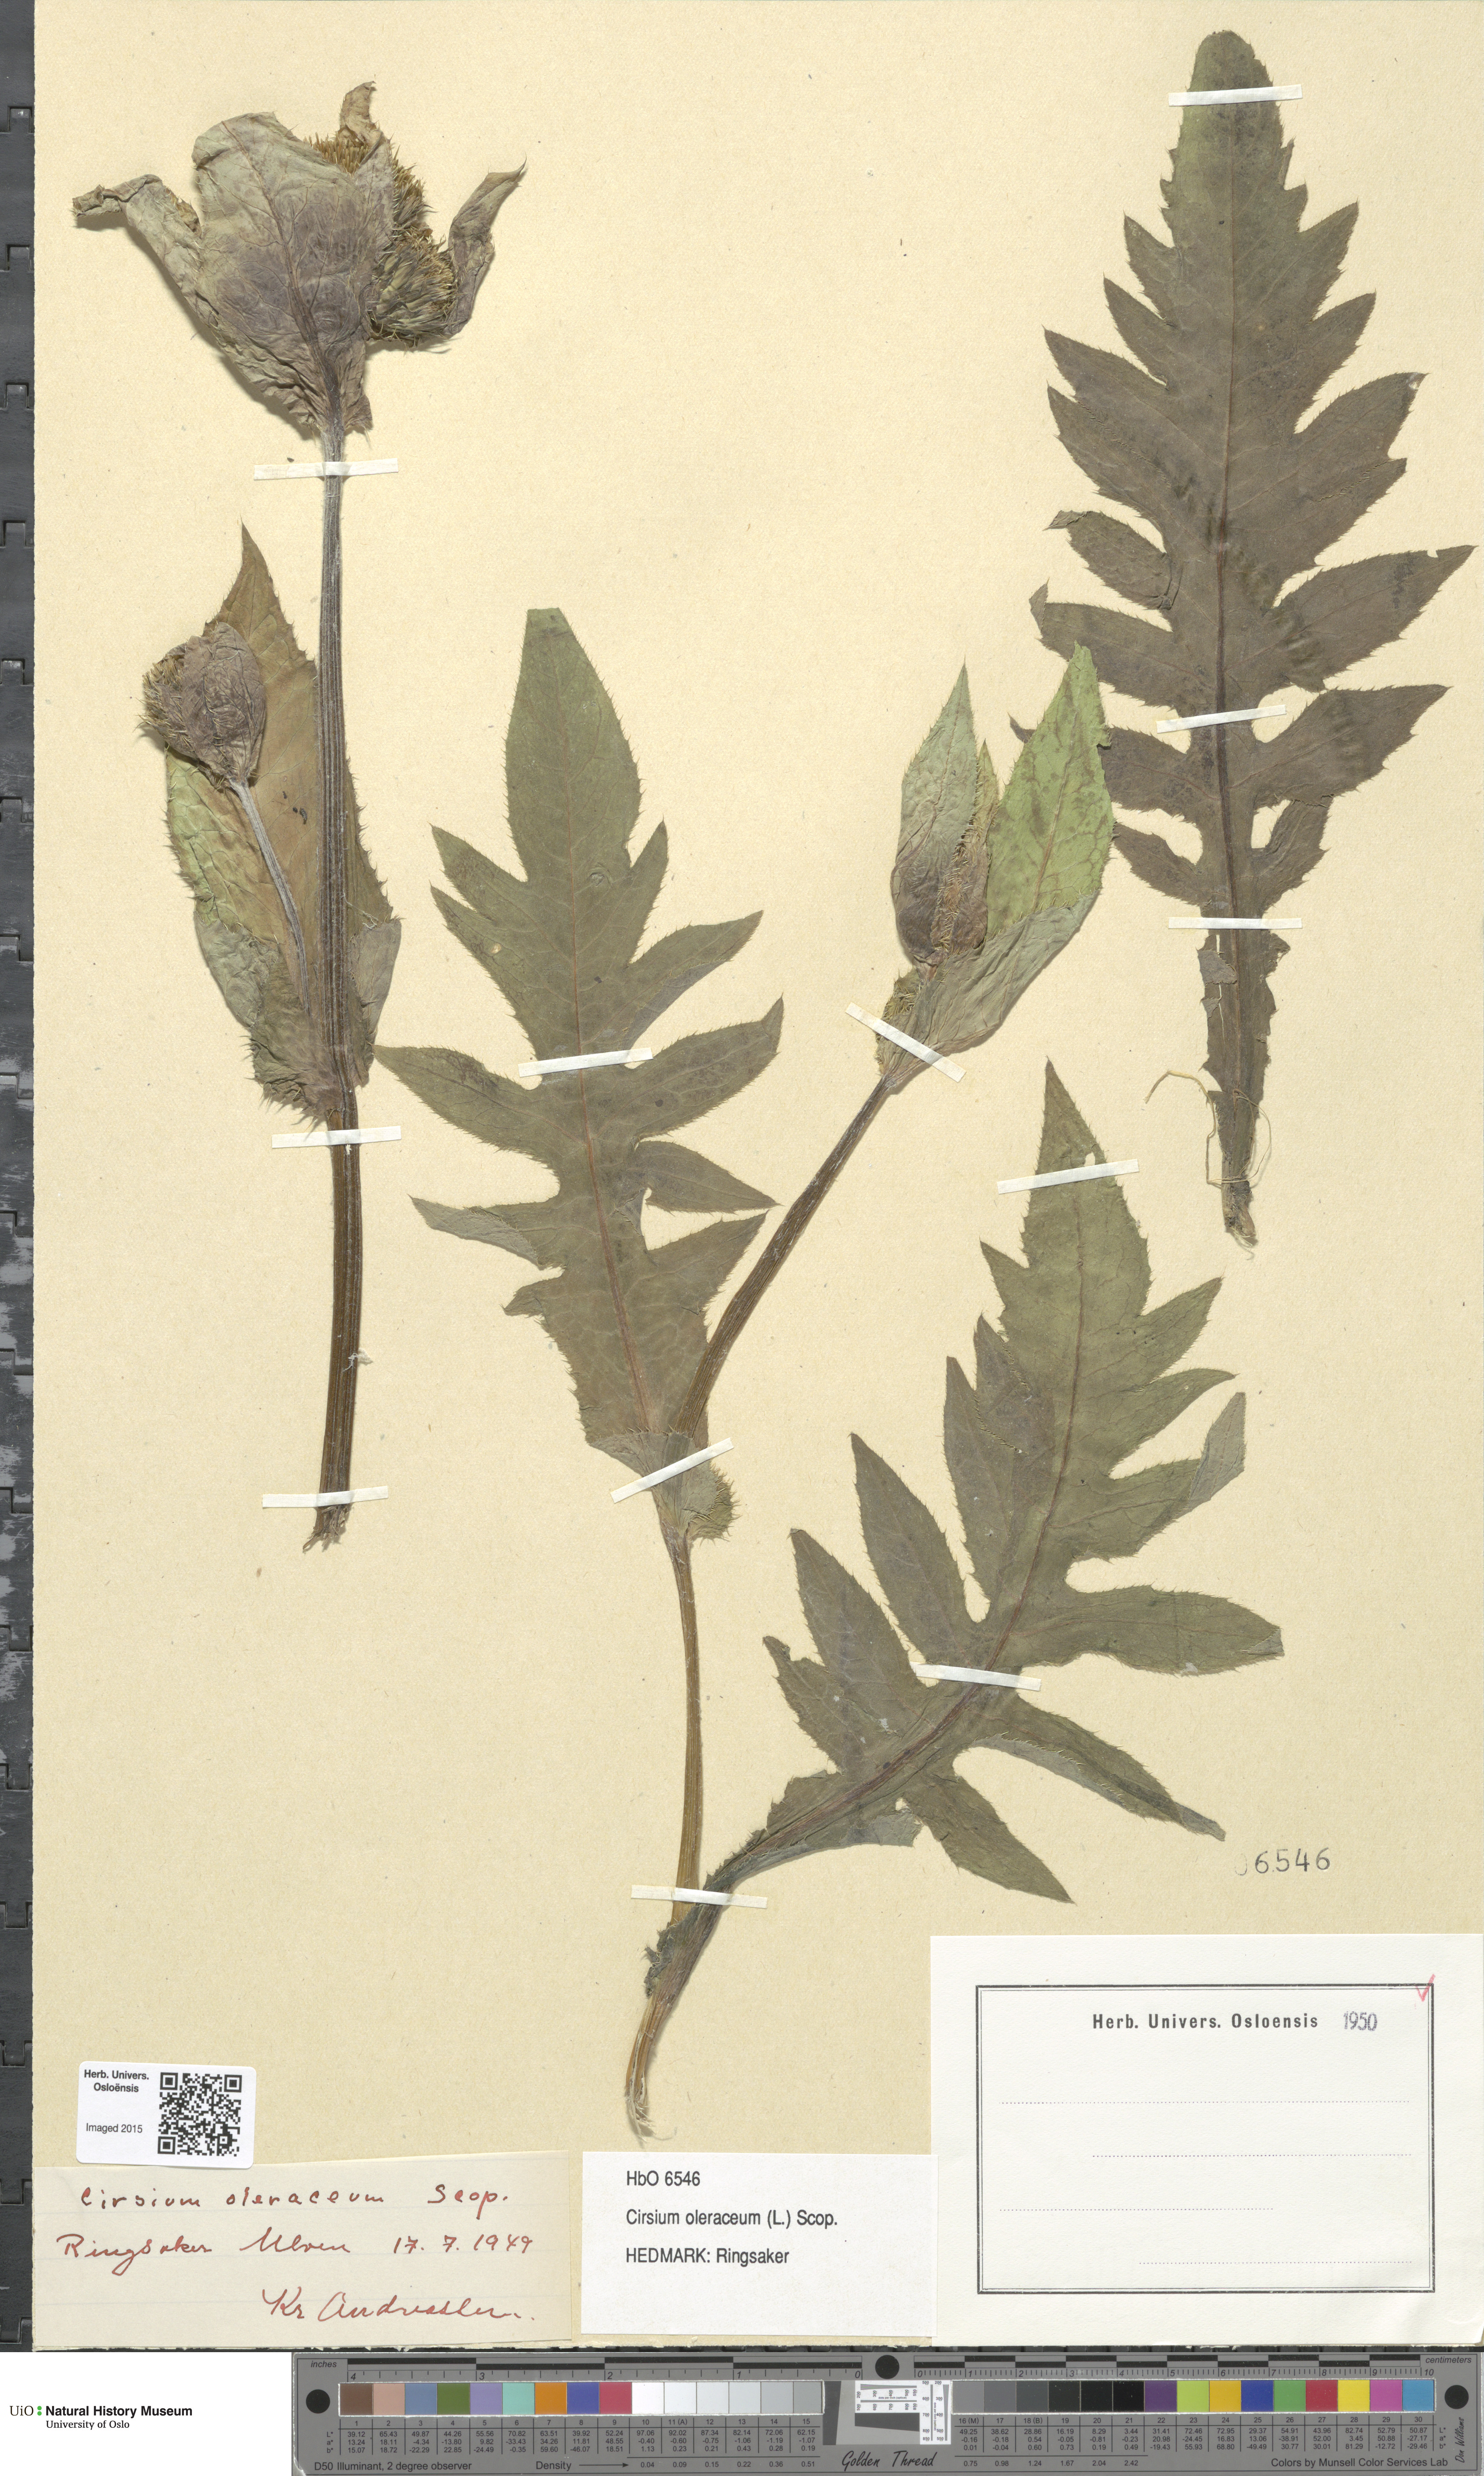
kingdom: Plantae
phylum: Tracheophyta
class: Magnoliopsida
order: Asterales
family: Asteraceae
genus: Cirsium
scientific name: Cirsium oleraceum
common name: Cabbage thistle
